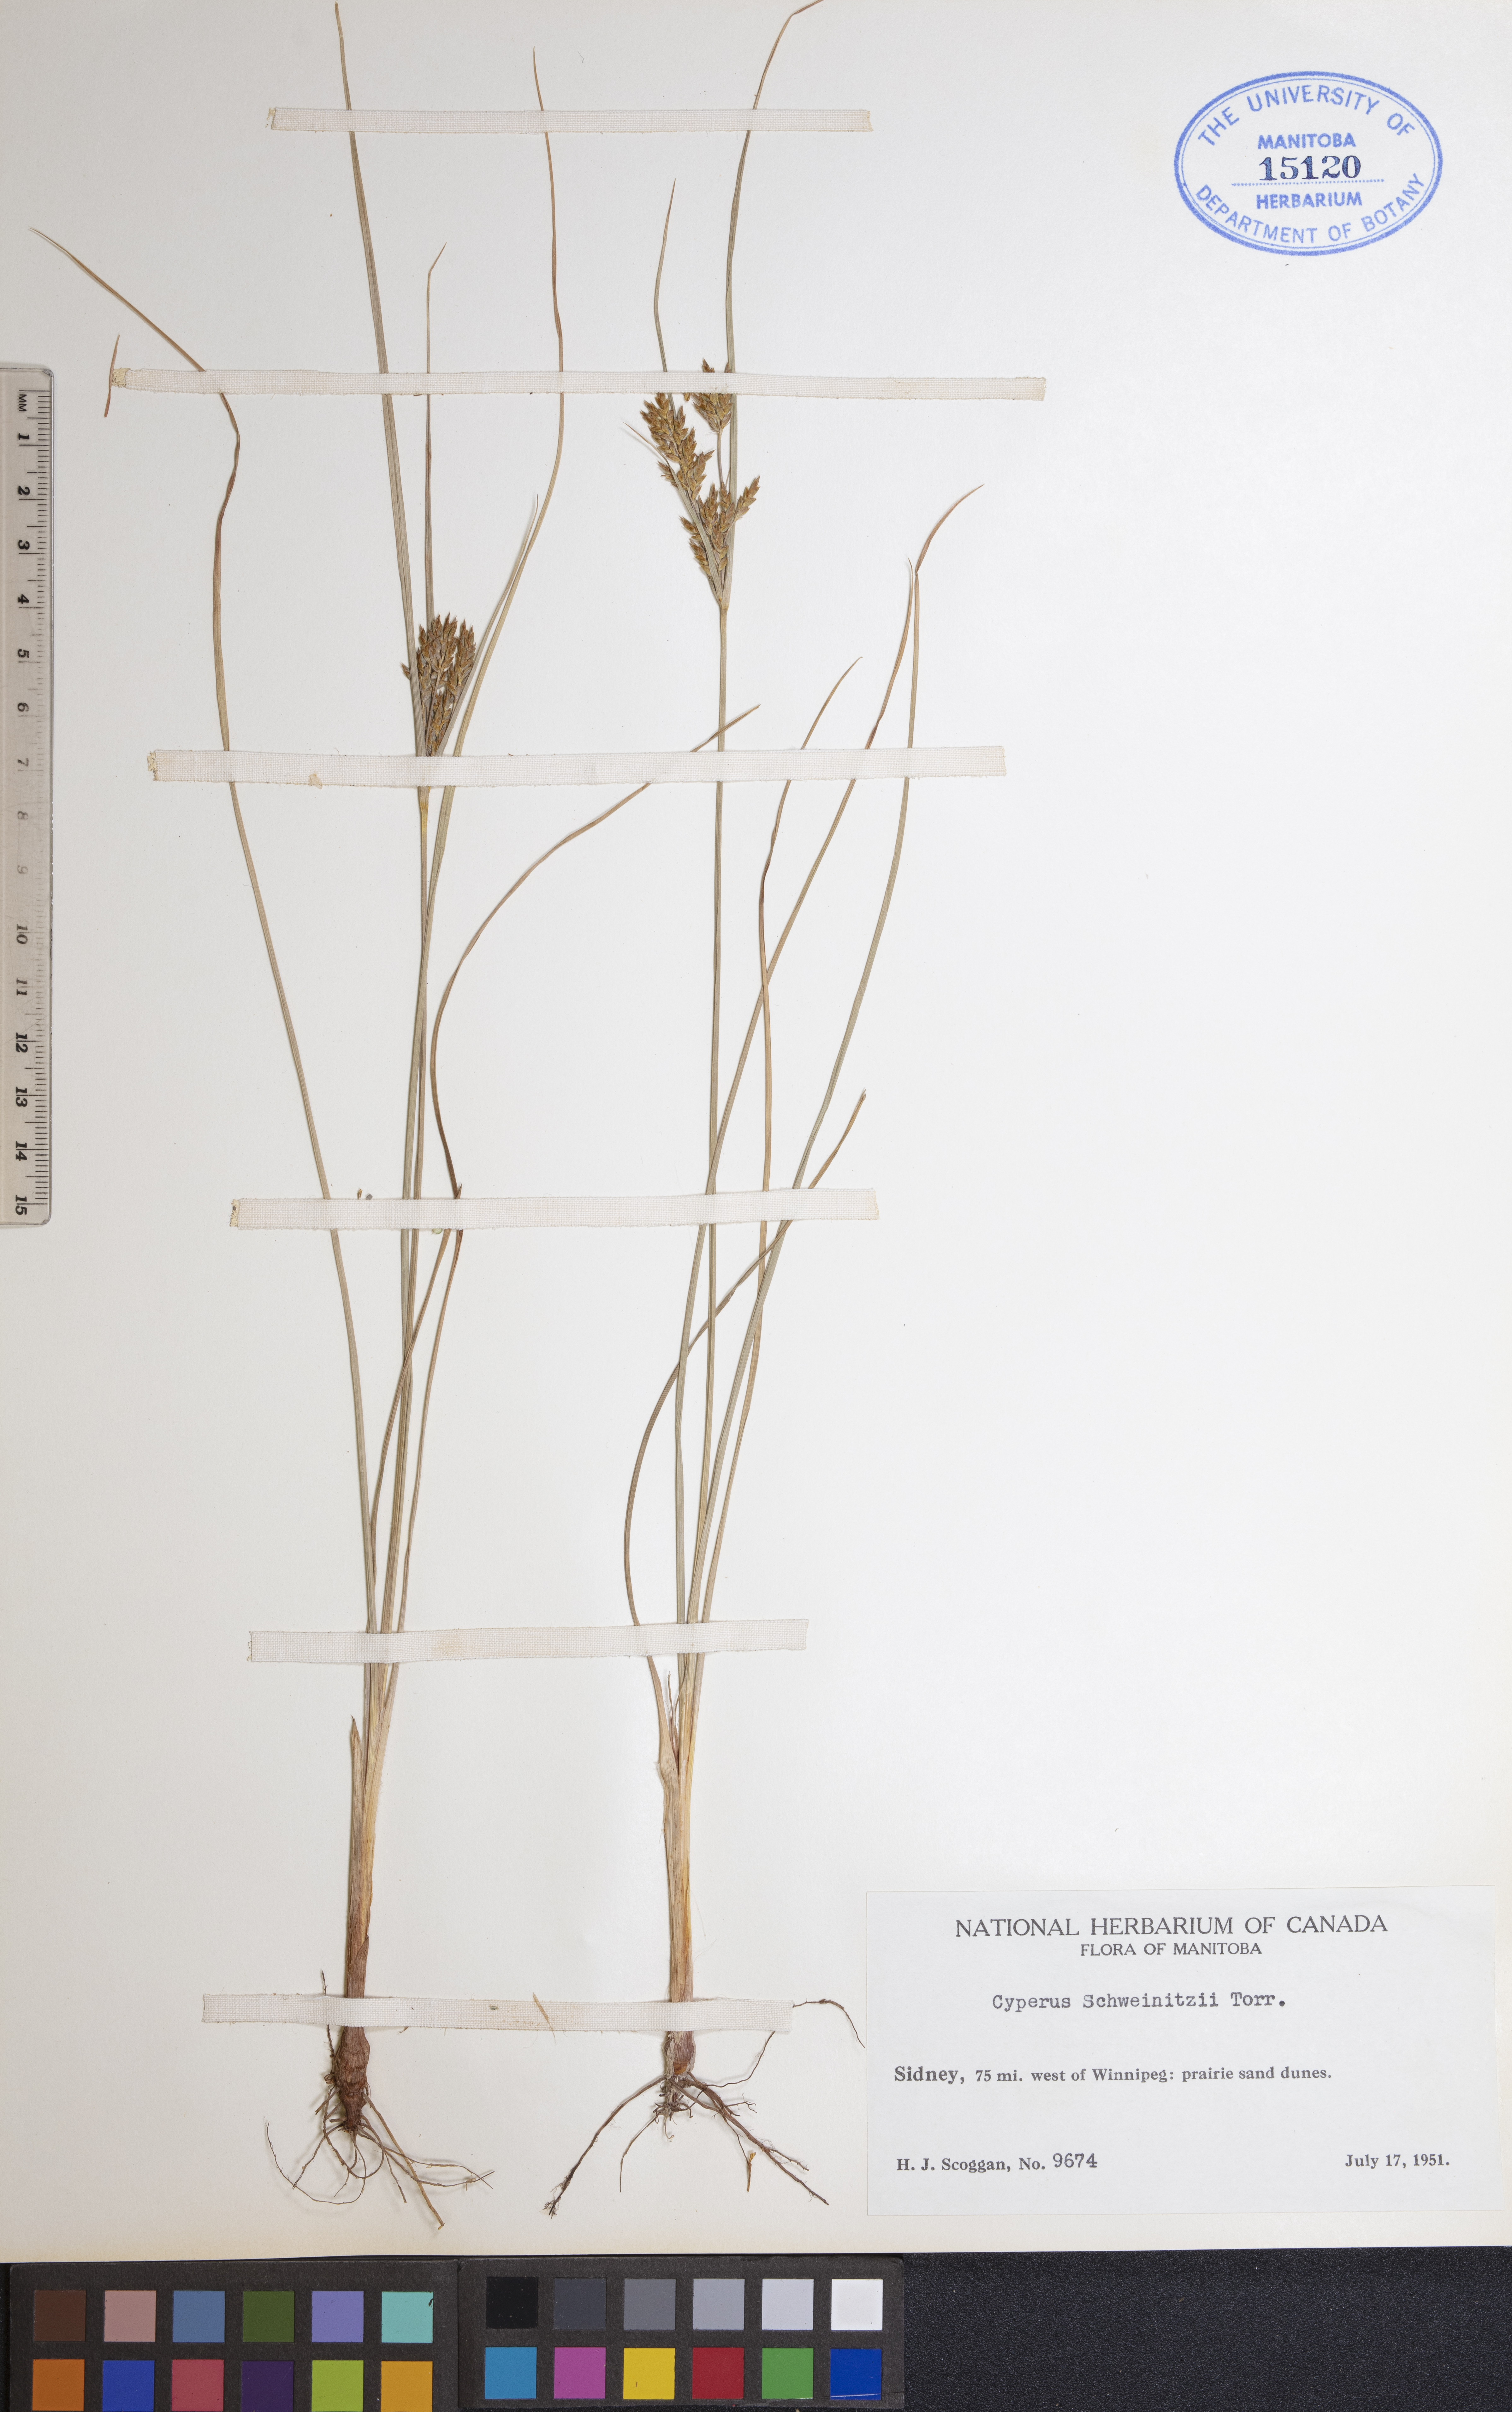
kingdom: Plantae
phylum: Tracheophyta
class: Liliopsida
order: Poales
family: Cyperaceae
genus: Cyperus
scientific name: Cyperus schweinitzii
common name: Schweinitz's cyperus
